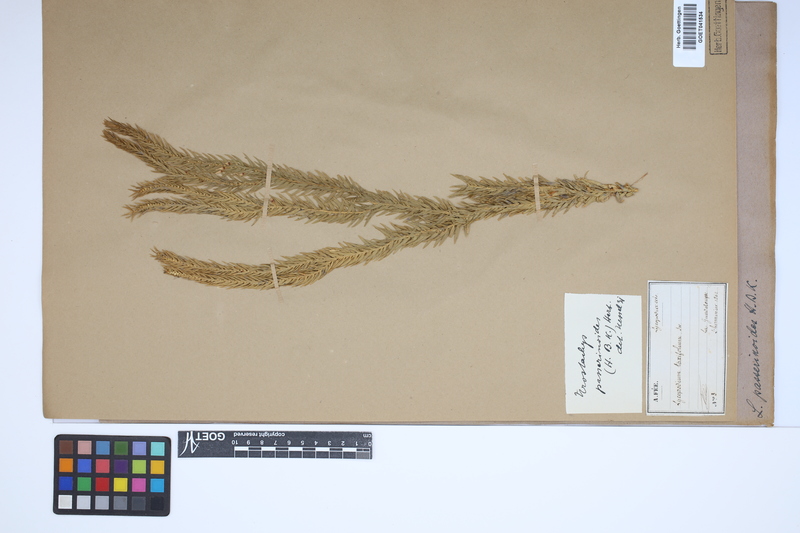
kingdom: Plantae
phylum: Tracheophyta
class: Lycopodiopsida
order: Lycopodiales
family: Lycopodiaceae
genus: Phlegmariurus
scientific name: Phlegmariurus taxifolius
